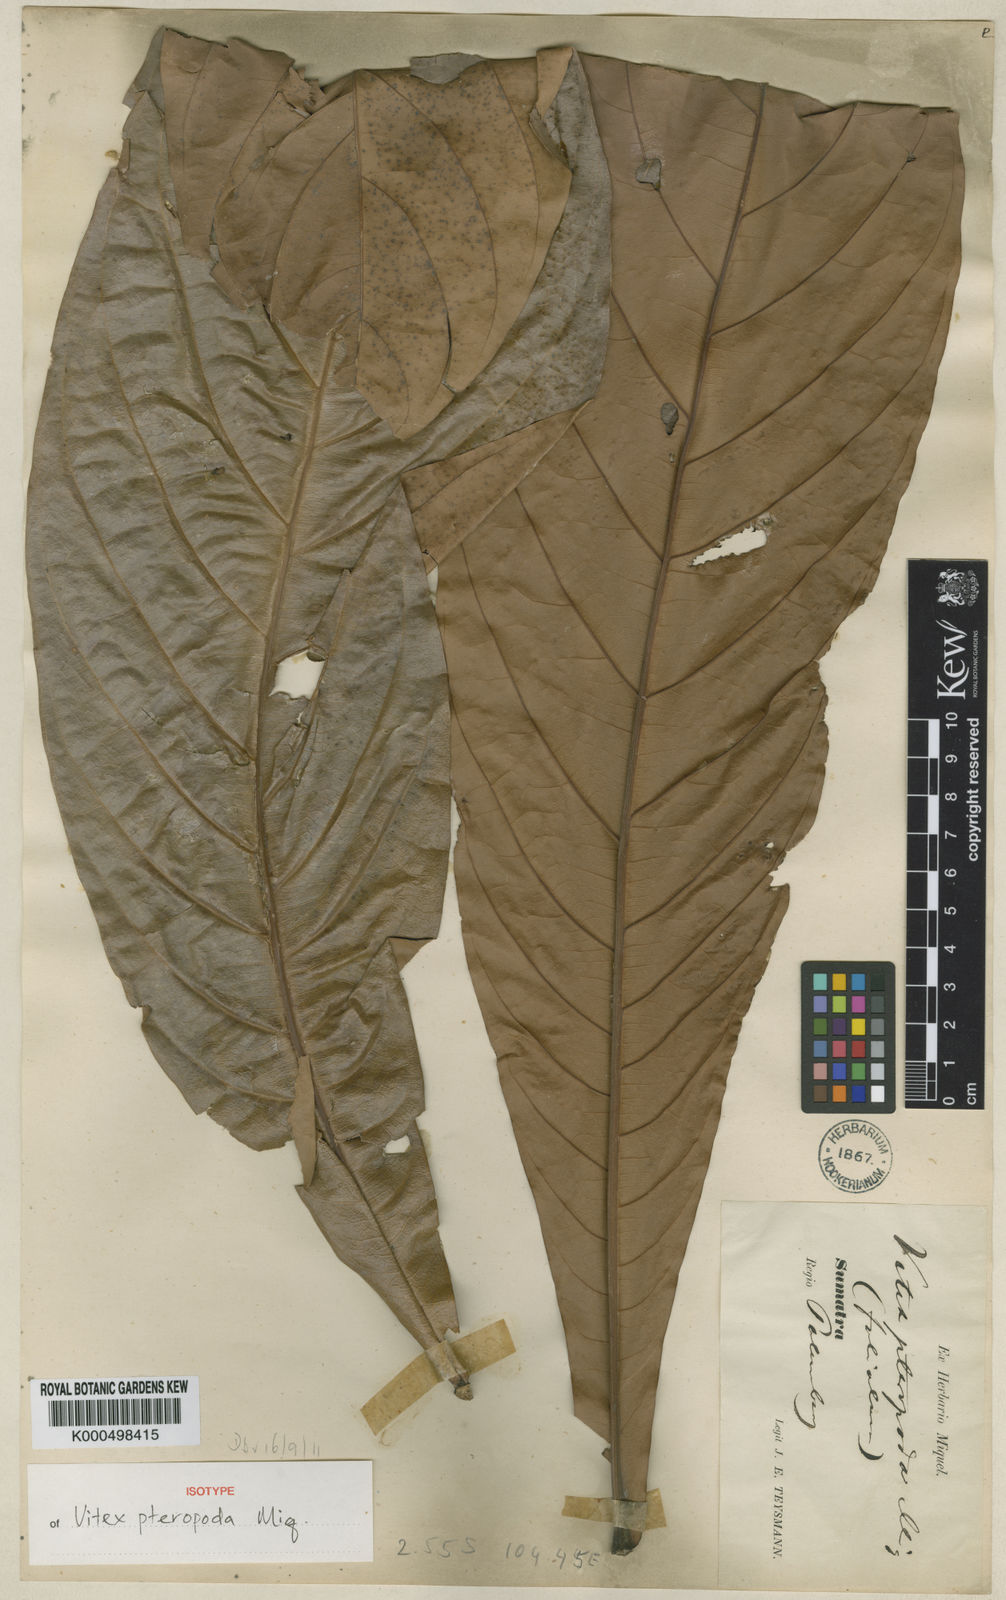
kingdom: Plantae
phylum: Tracheophyta
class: Magnoliopsida
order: Lamiales
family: Lamiaceae
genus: Teijsmanniodendron
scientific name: Teijsmanniodendron pteropodum
